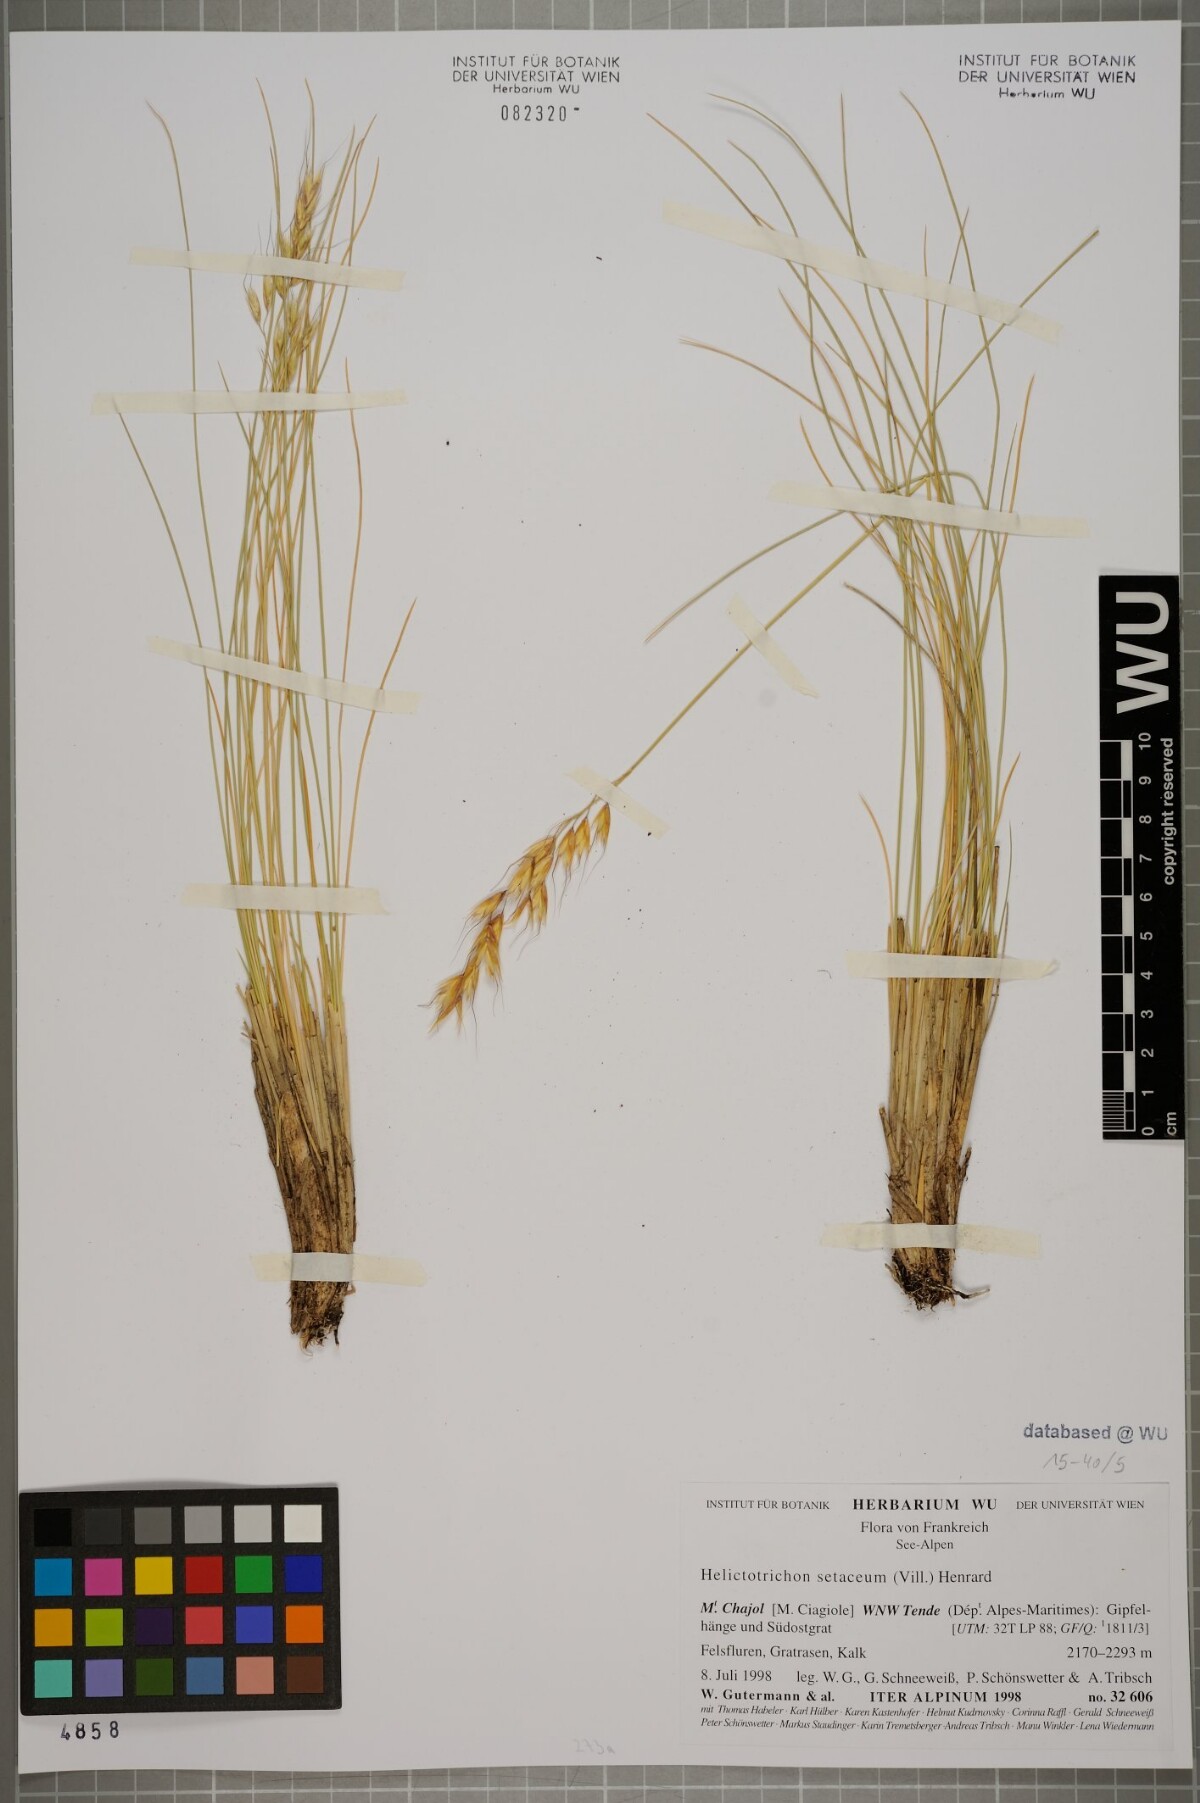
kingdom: Plantae
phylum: Tracheophyta
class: Liliopsida
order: Poales
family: Poaceae
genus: Helictotrichon
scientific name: Helictotrichon setaceum
